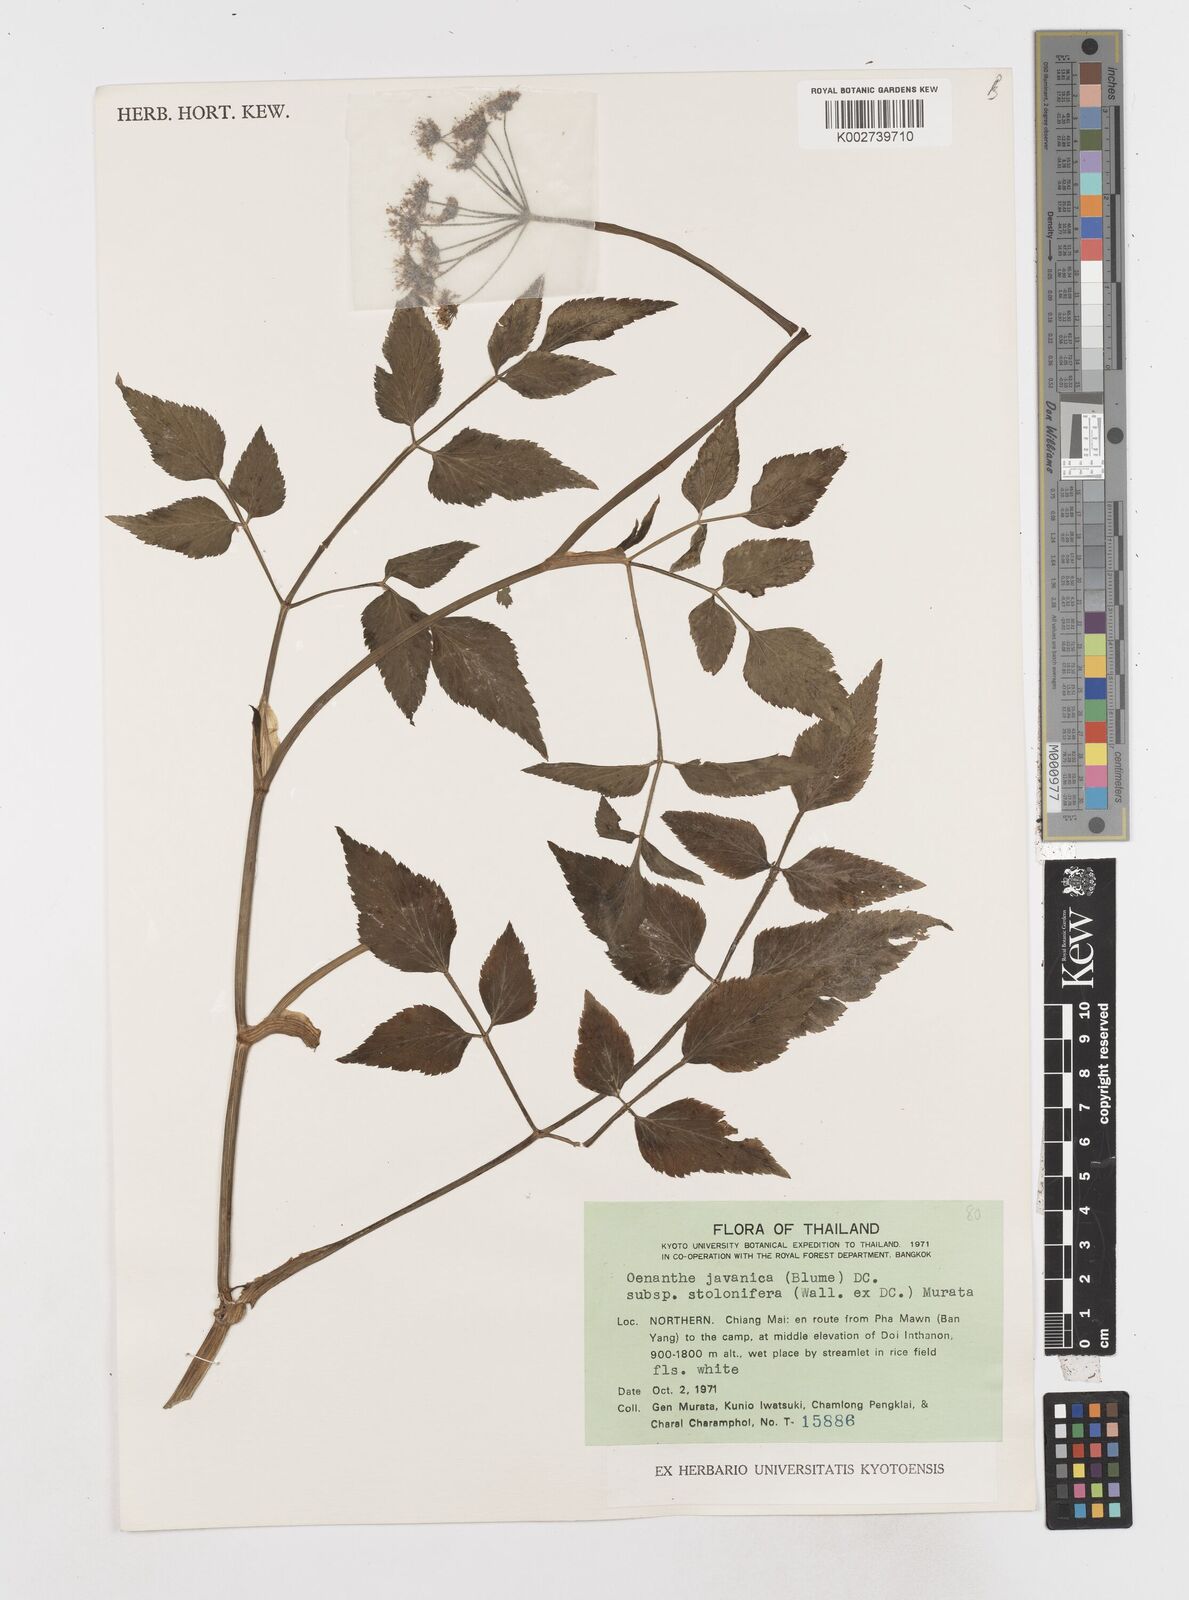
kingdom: Plantae
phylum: Tracheophyta
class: Magnoliopsida
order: Apiales
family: Apiaceae
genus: Oenanthe
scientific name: Oenanthe javanica
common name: Java water-dropwort
